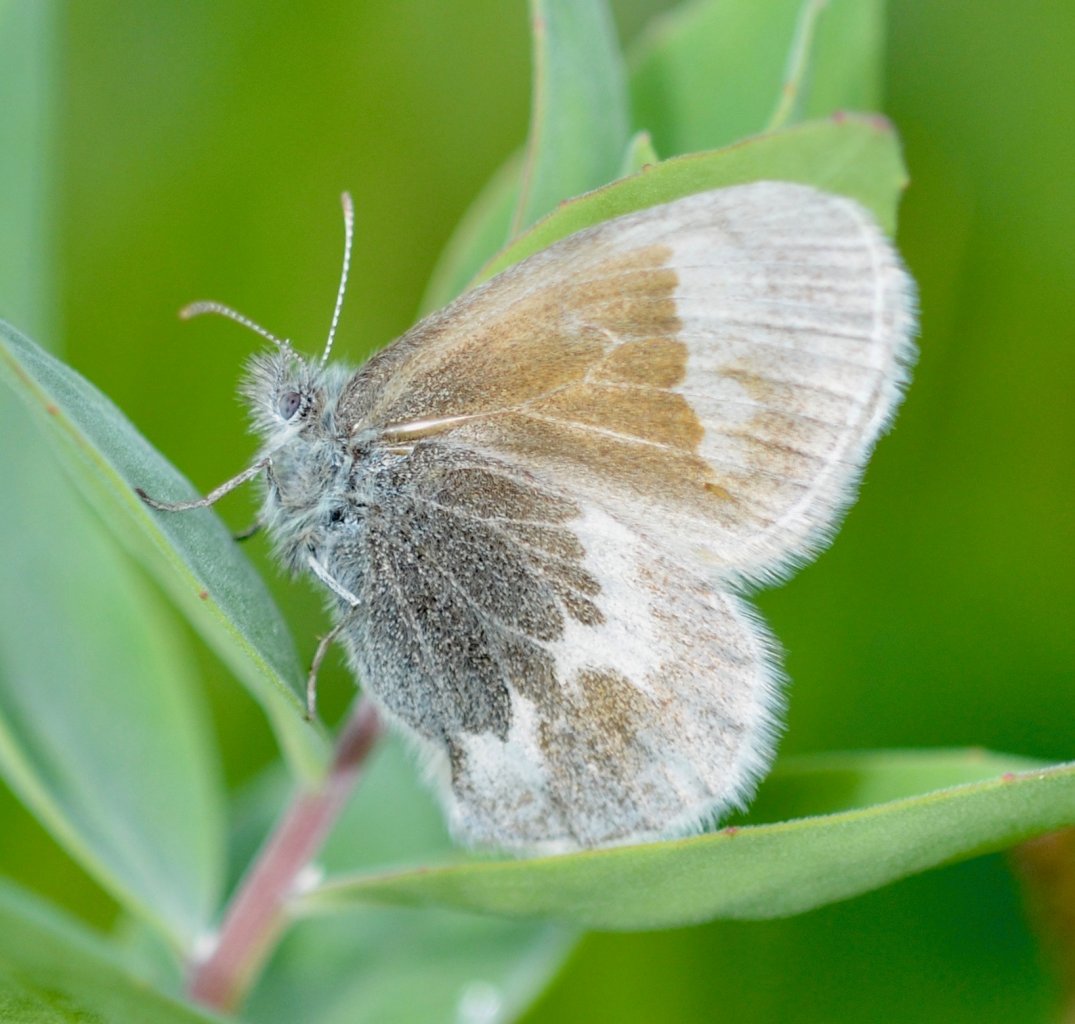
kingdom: Animalia
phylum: Arthropoda
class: Insecta
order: Lepidoptera
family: Nymphalidae
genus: Coenonympha
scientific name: Coenonympha tullia
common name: Large Heath
